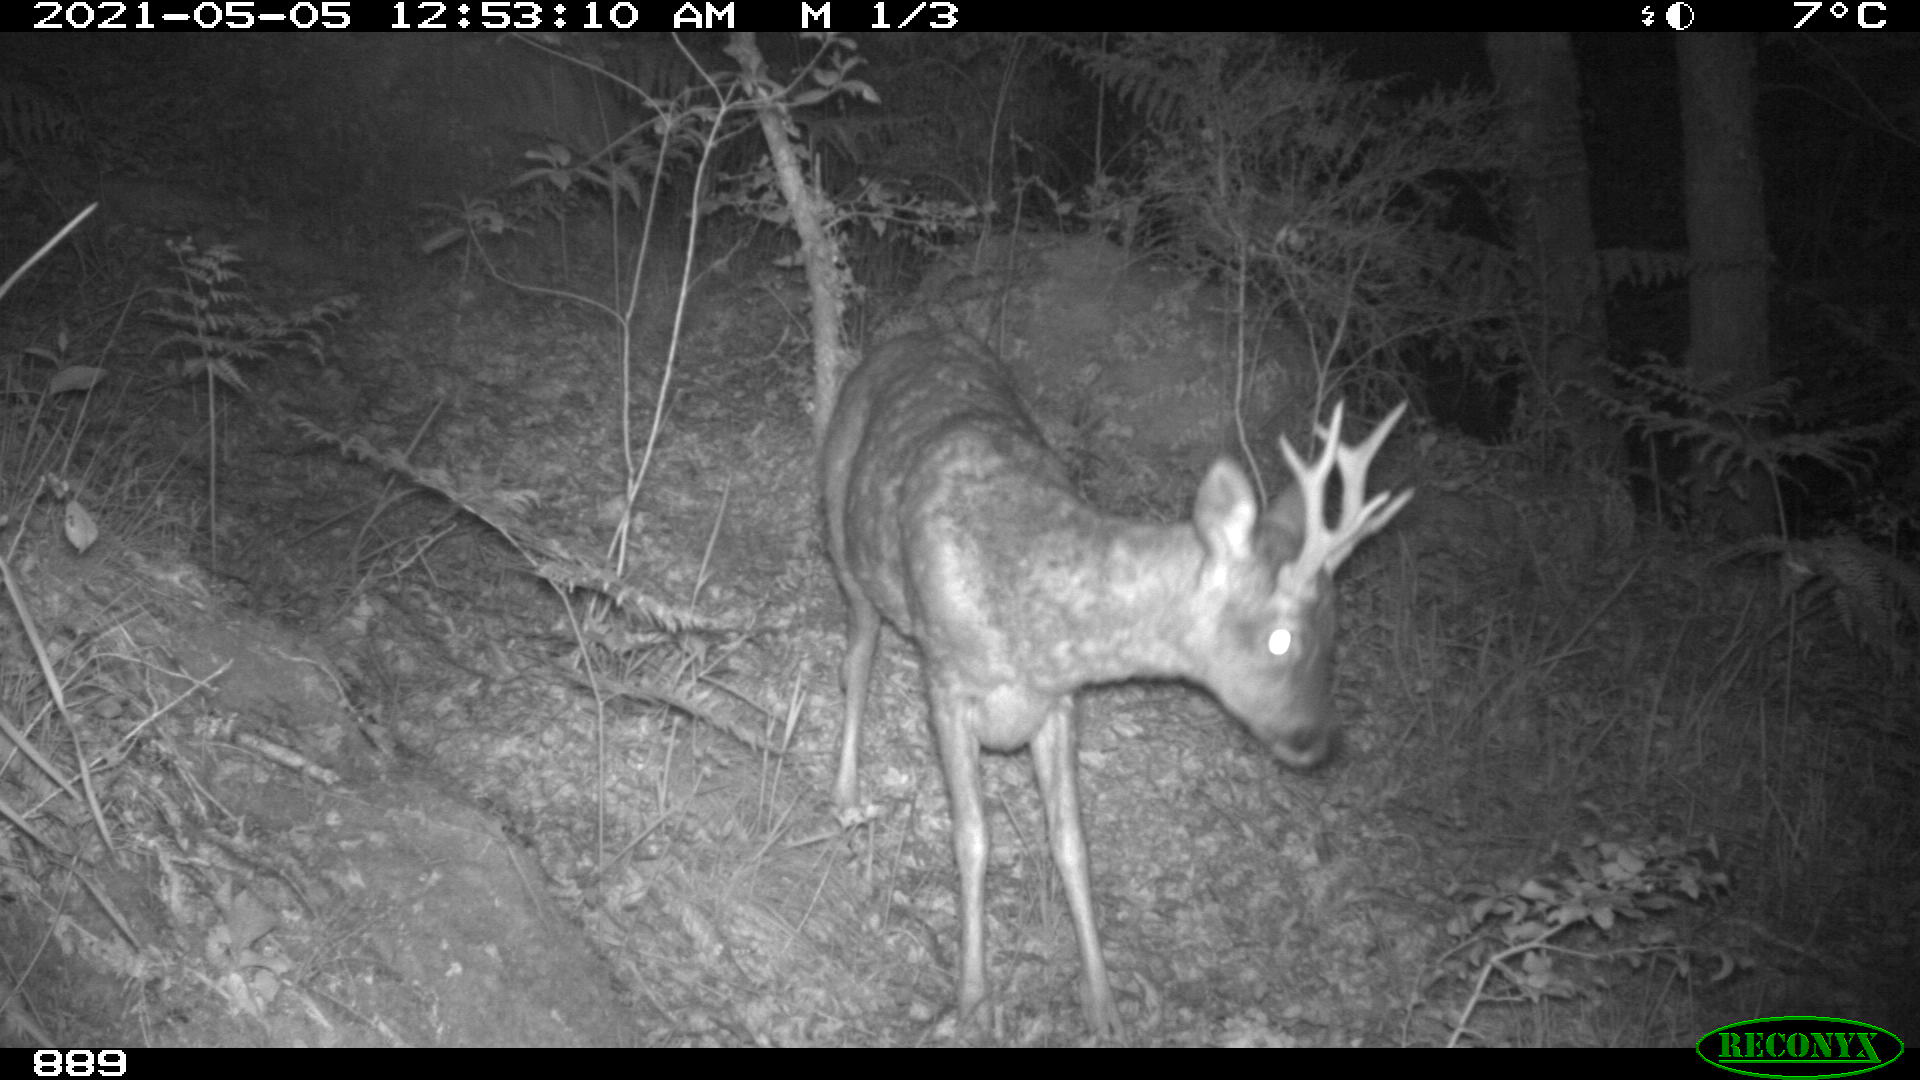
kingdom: Animalia
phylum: Chordata
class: Mammalia
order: Artiodactyla
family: Cervidae
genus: Capreolus
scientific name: Capreolus capreolus
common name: Western roe deer
